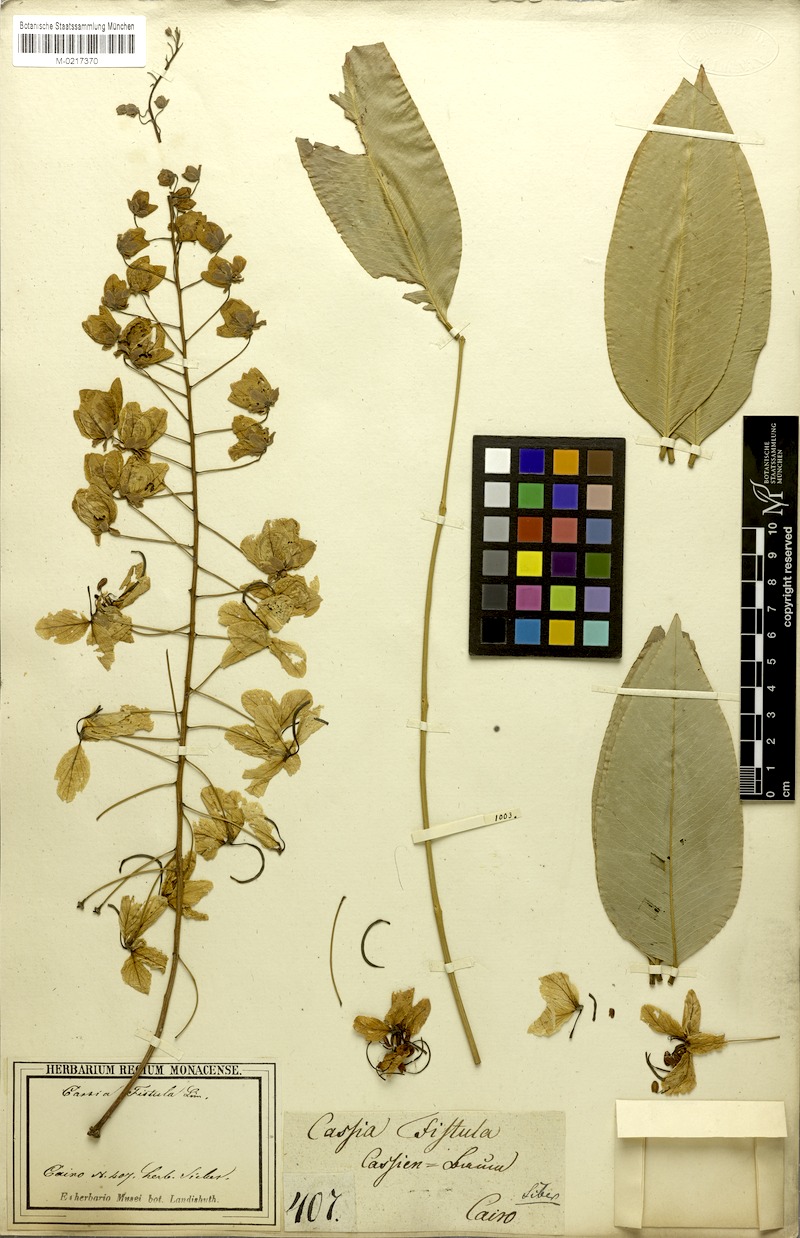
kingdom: Plantae
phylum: Tracheophyta
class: Magnoliopsida
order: Fabales
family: Fabaceae
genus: Cassia
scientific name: Cassia fistula
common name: Golden shower
